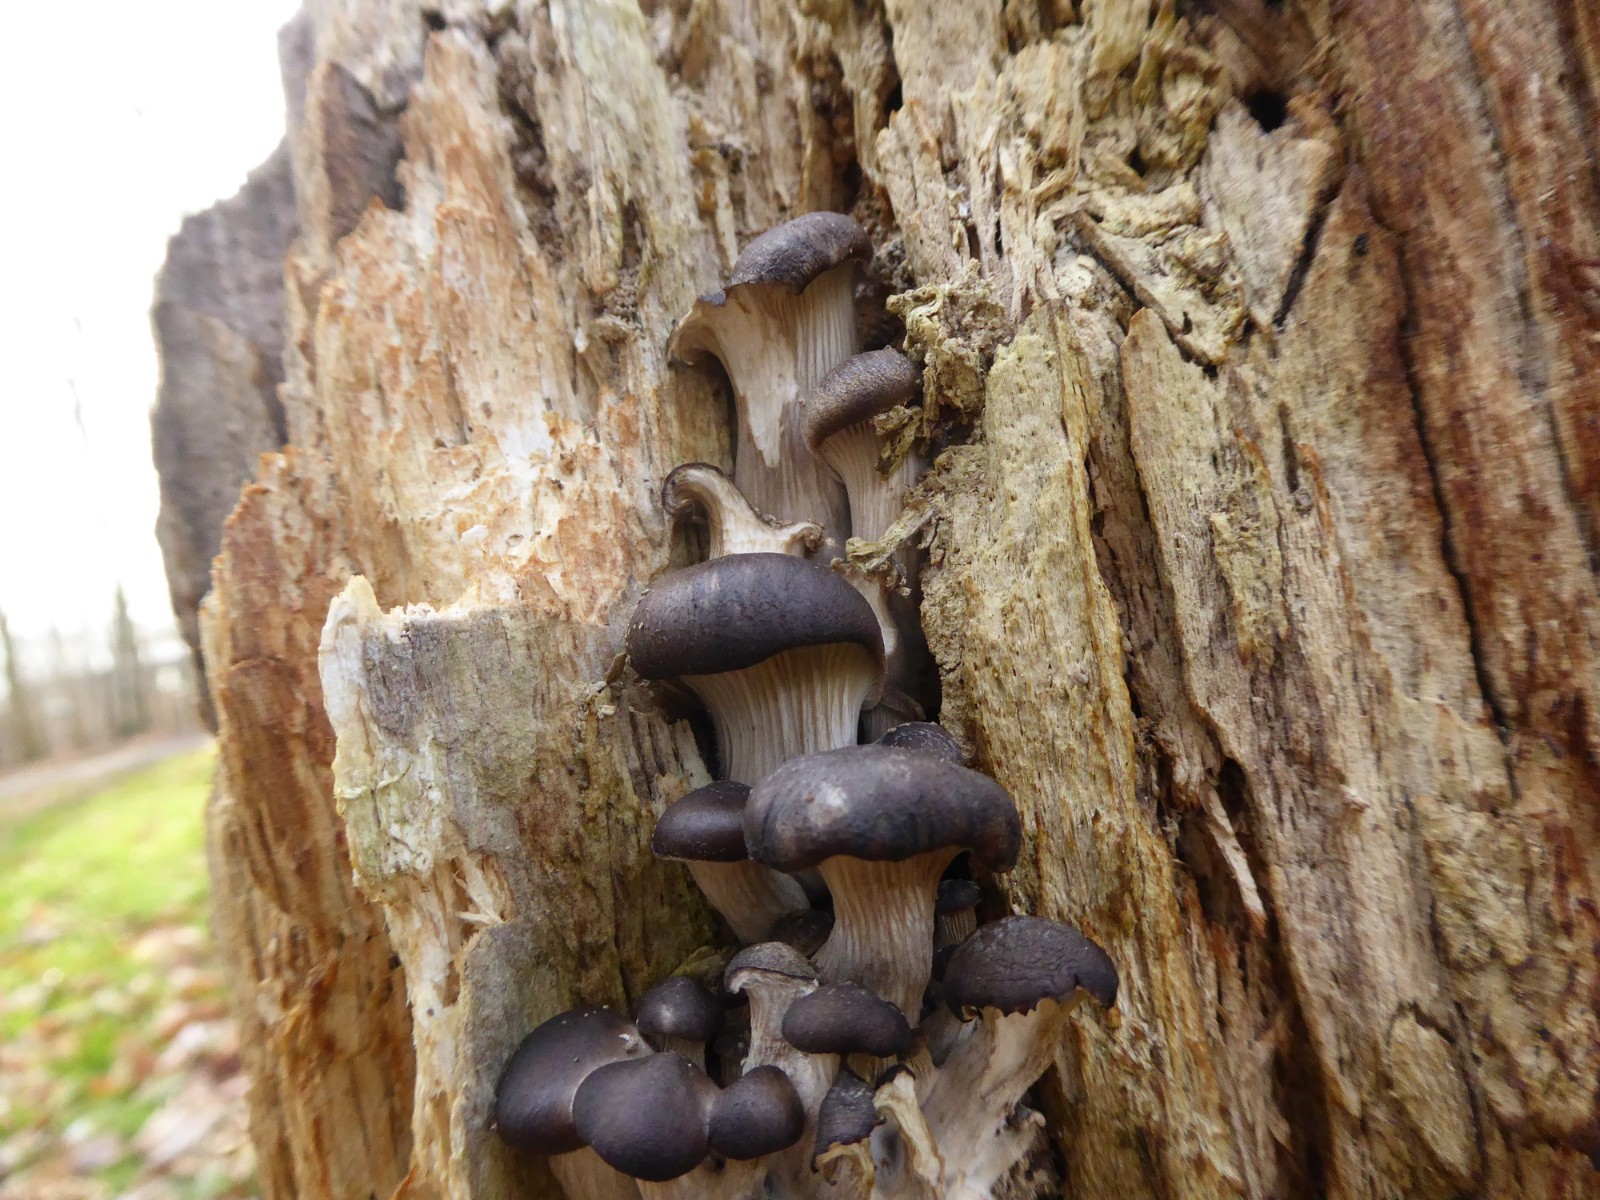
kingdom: Fungi
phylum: Basidiomycota
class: Agaricomycetes
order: Agaricales
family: Pleurotaceae
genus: Pleurotus
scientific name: Pleurotus ostreatus
